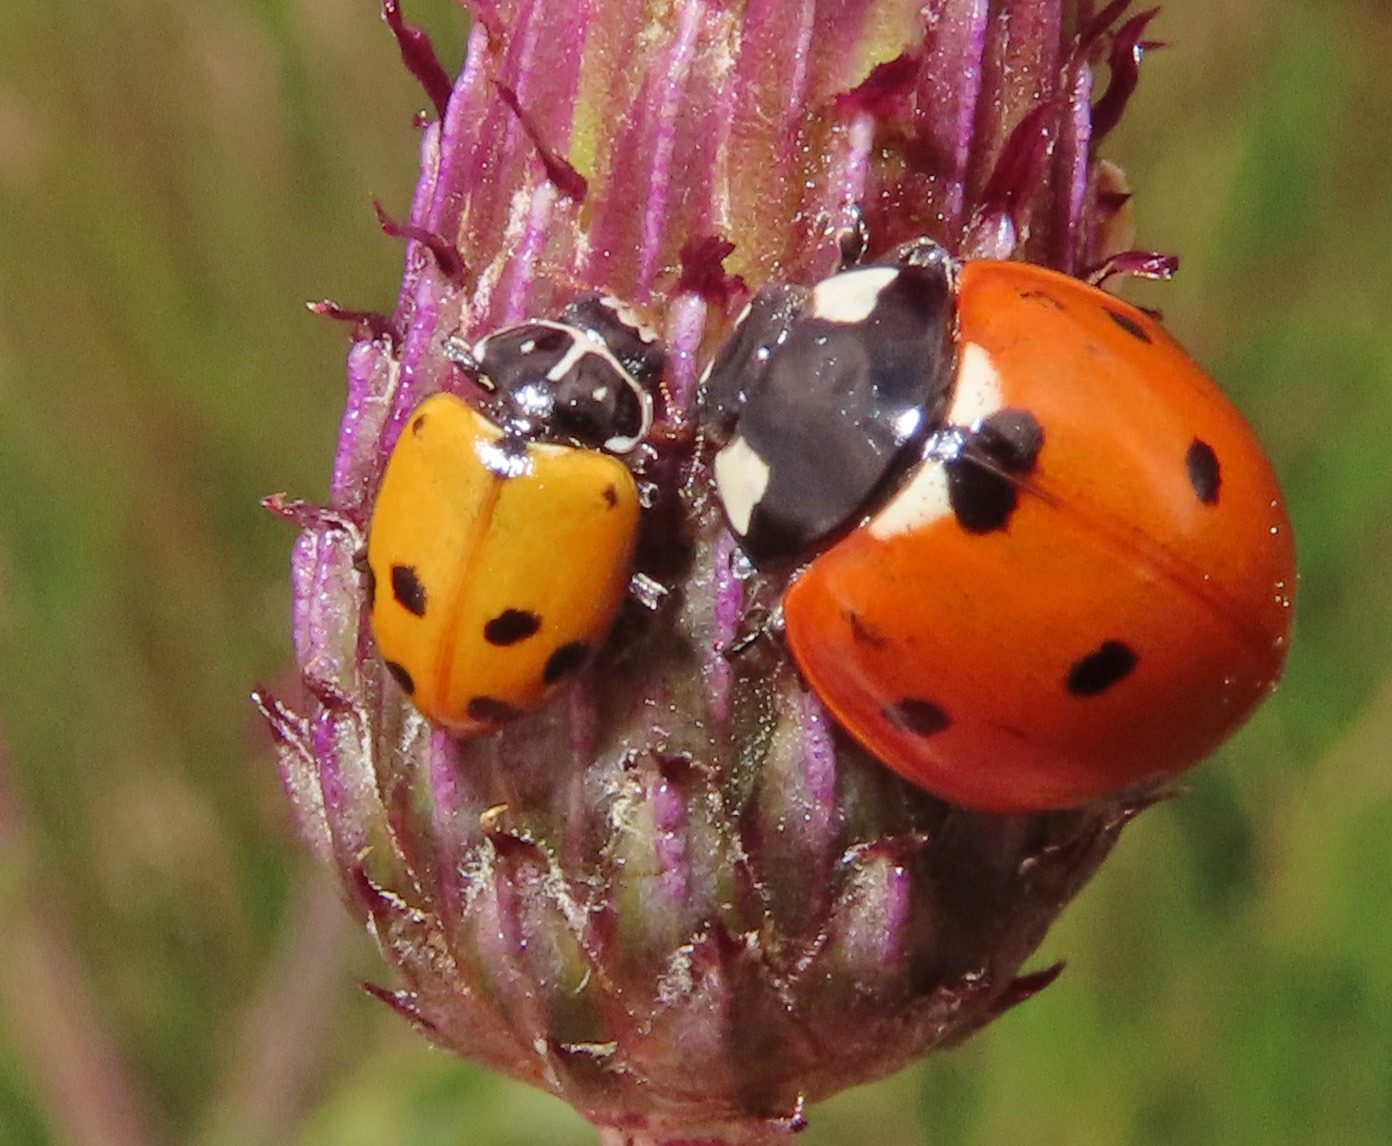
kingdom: Animalia
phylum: Arthropoda
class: Insecta
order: Coleoptera
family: Coccinellidae
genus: Hippodamia
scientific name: Hippodamia variegata
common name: Adonis' mariehøne
